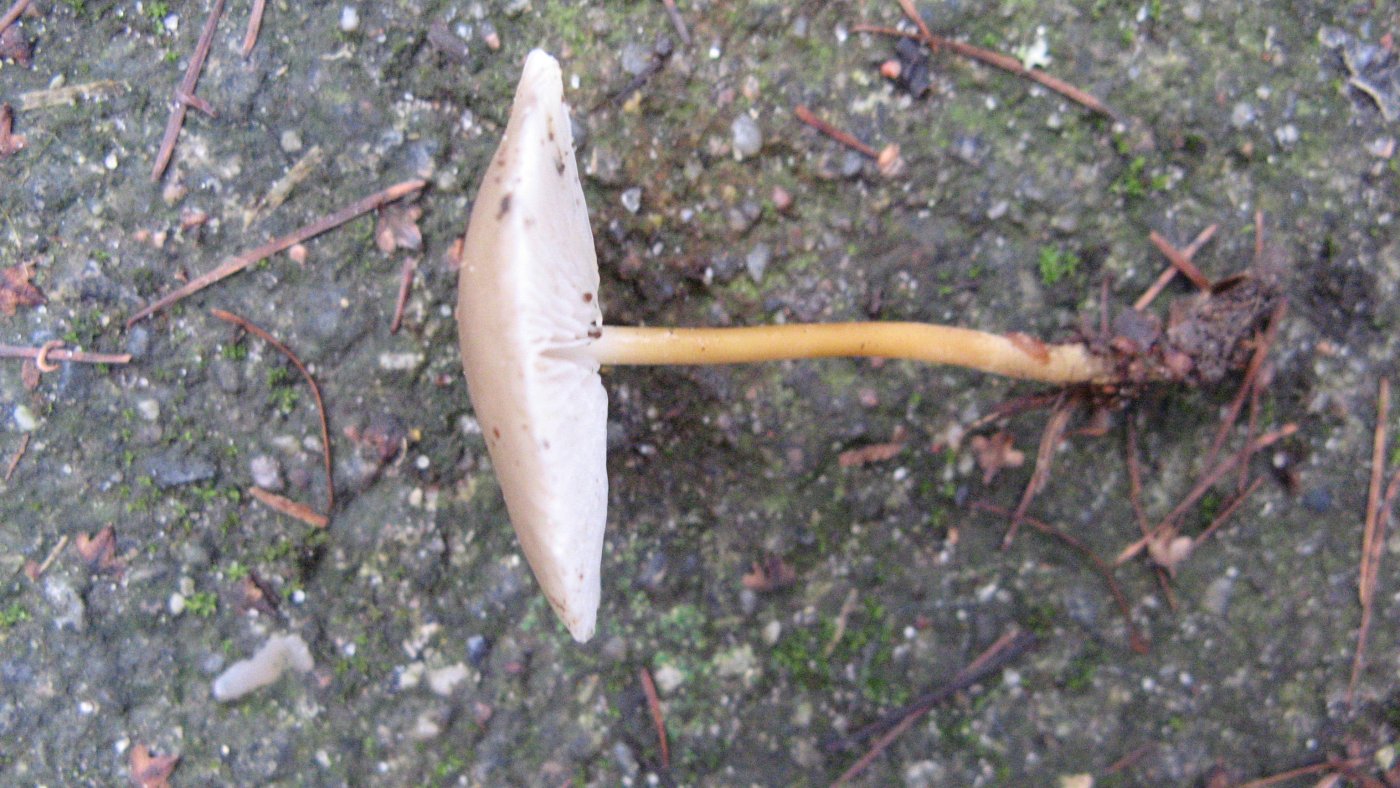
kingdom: Fungi
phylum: Basidiomycota
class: Agaricomycetes
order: Agaricales
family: Physalacriaceae
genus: Strobilurus
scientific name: Strobilurus esculentus
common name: gran-koglehat
